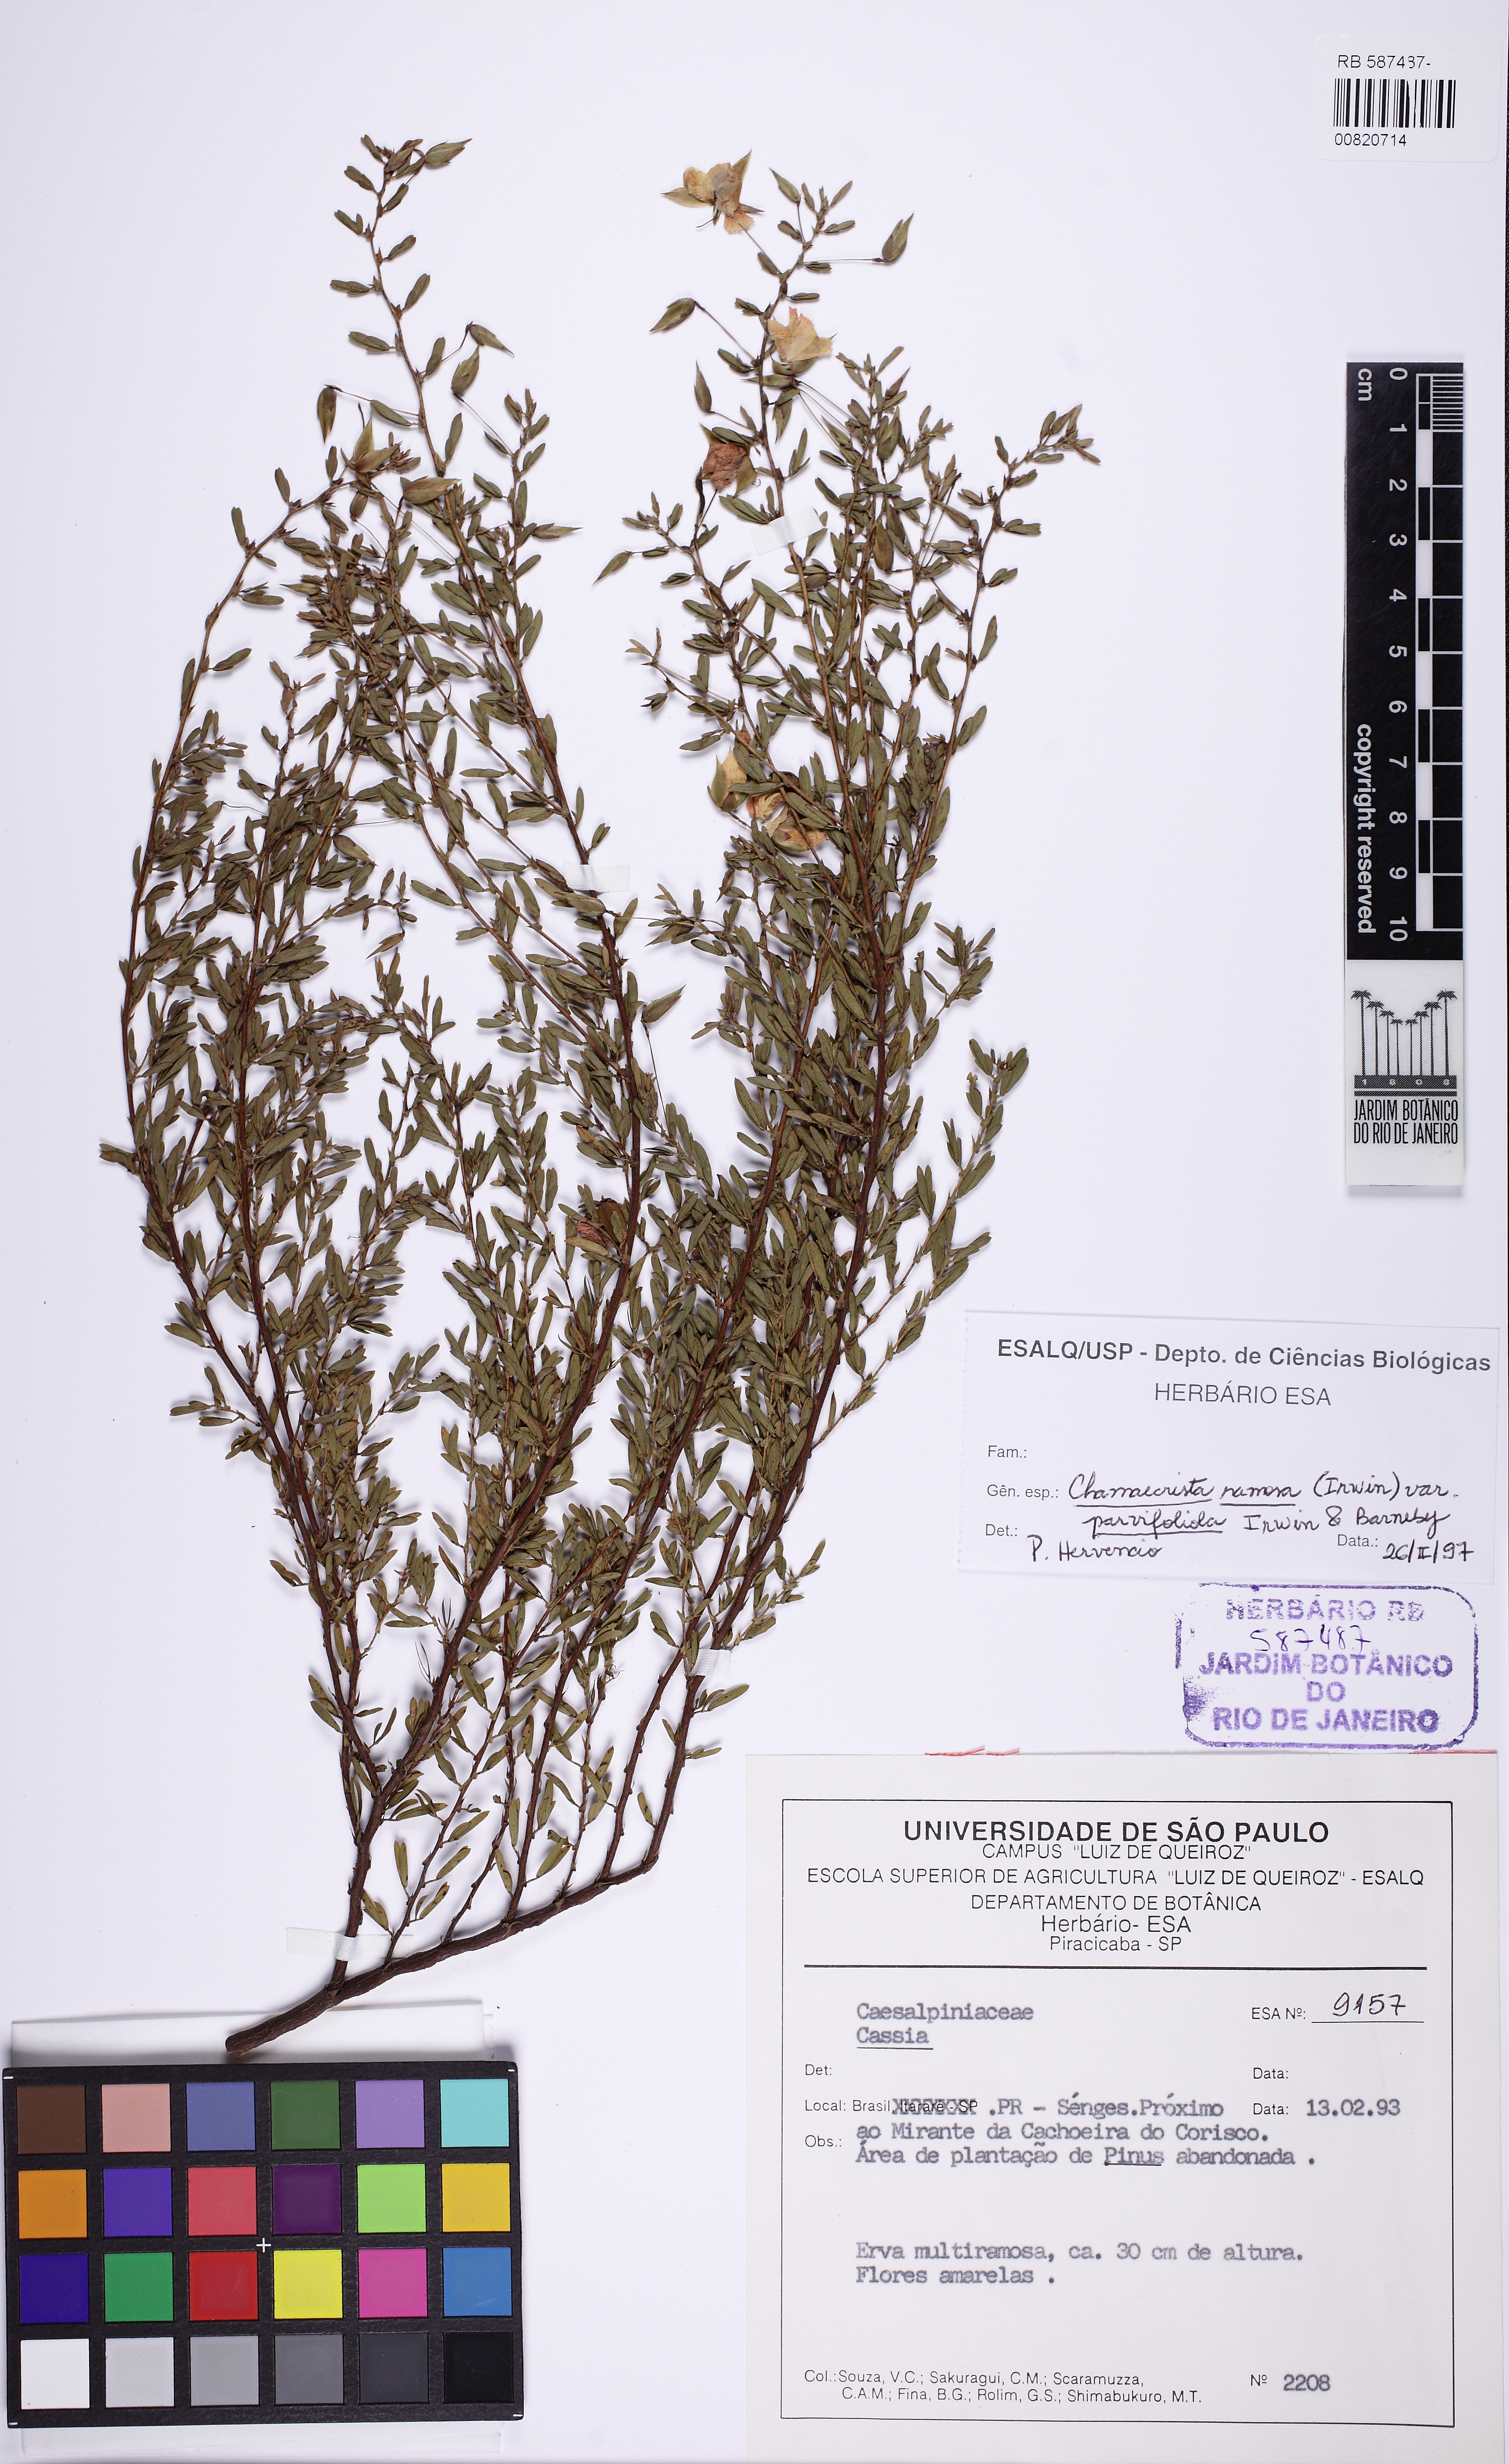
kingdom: Plantae
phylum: Tracheophyta
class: Magnoliopsida
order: Fabales
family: Fabaceae
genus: Chamaecrista
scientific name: Chamaecrista ramosa
